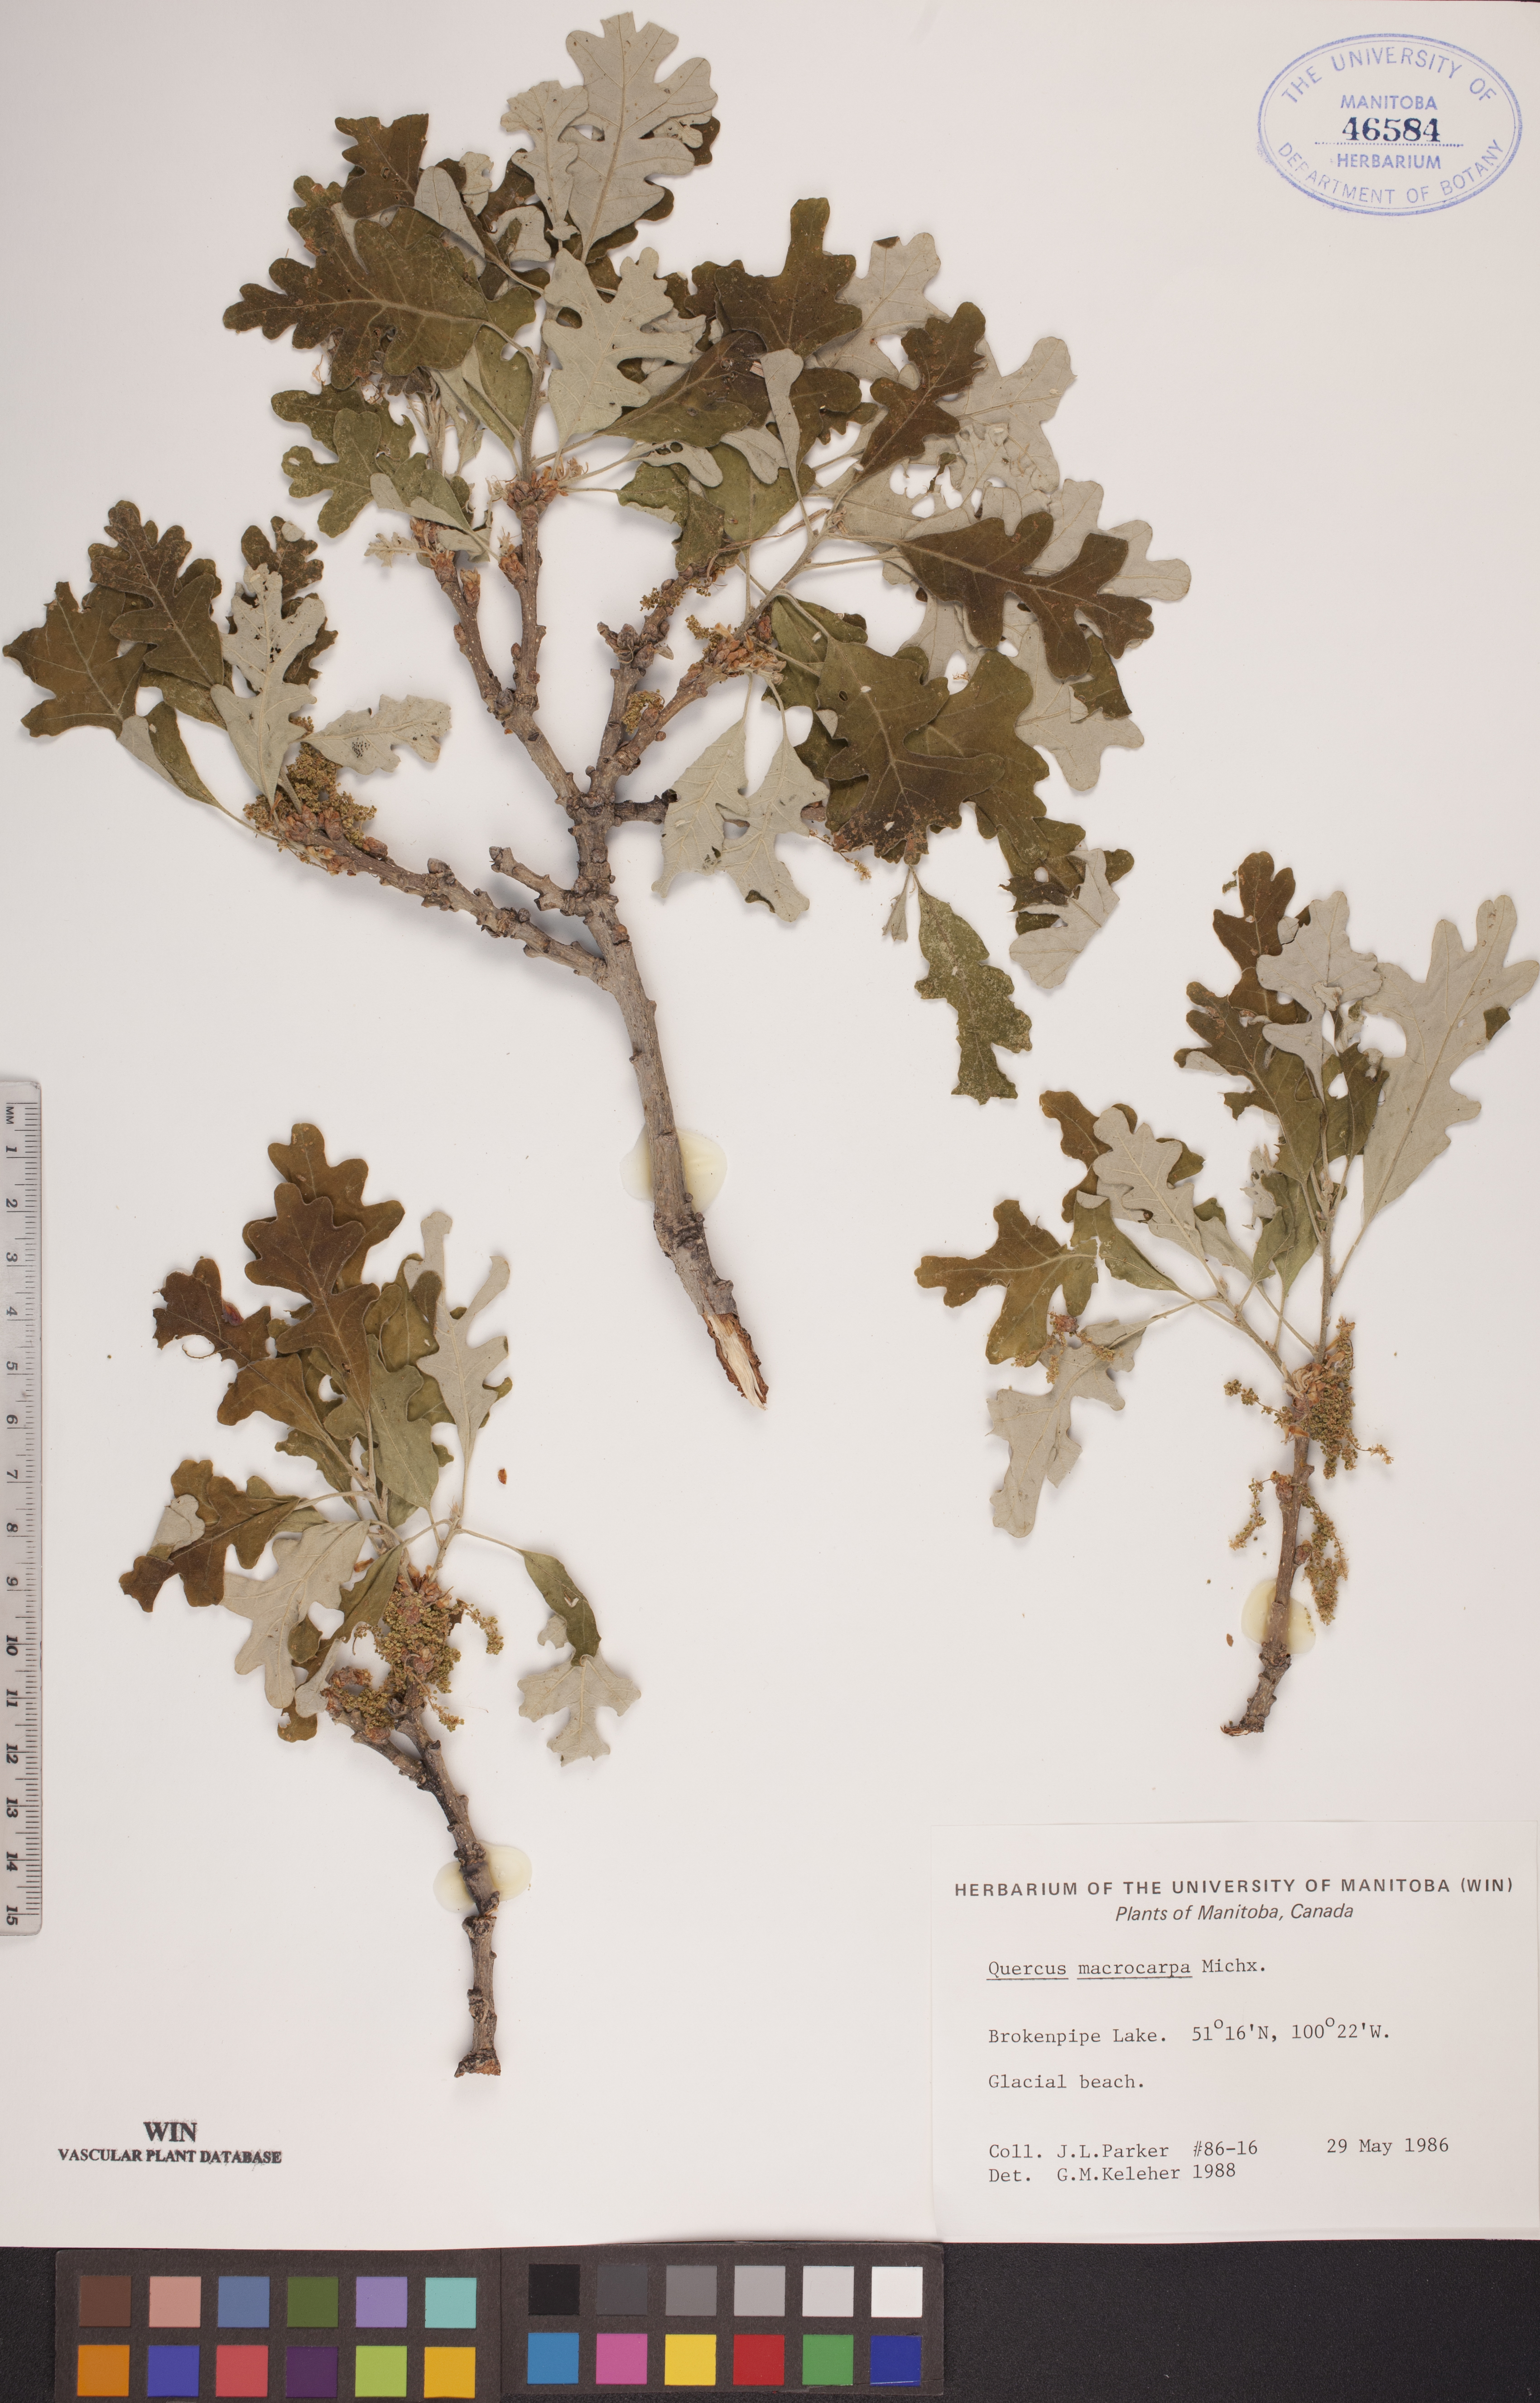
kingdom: Plantae
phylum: Tracheophyta
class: Magnoliopsida
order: Fagales
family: Fagaceae
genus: Quercus
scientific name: Quercus macrocarpa
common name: Bur oak
